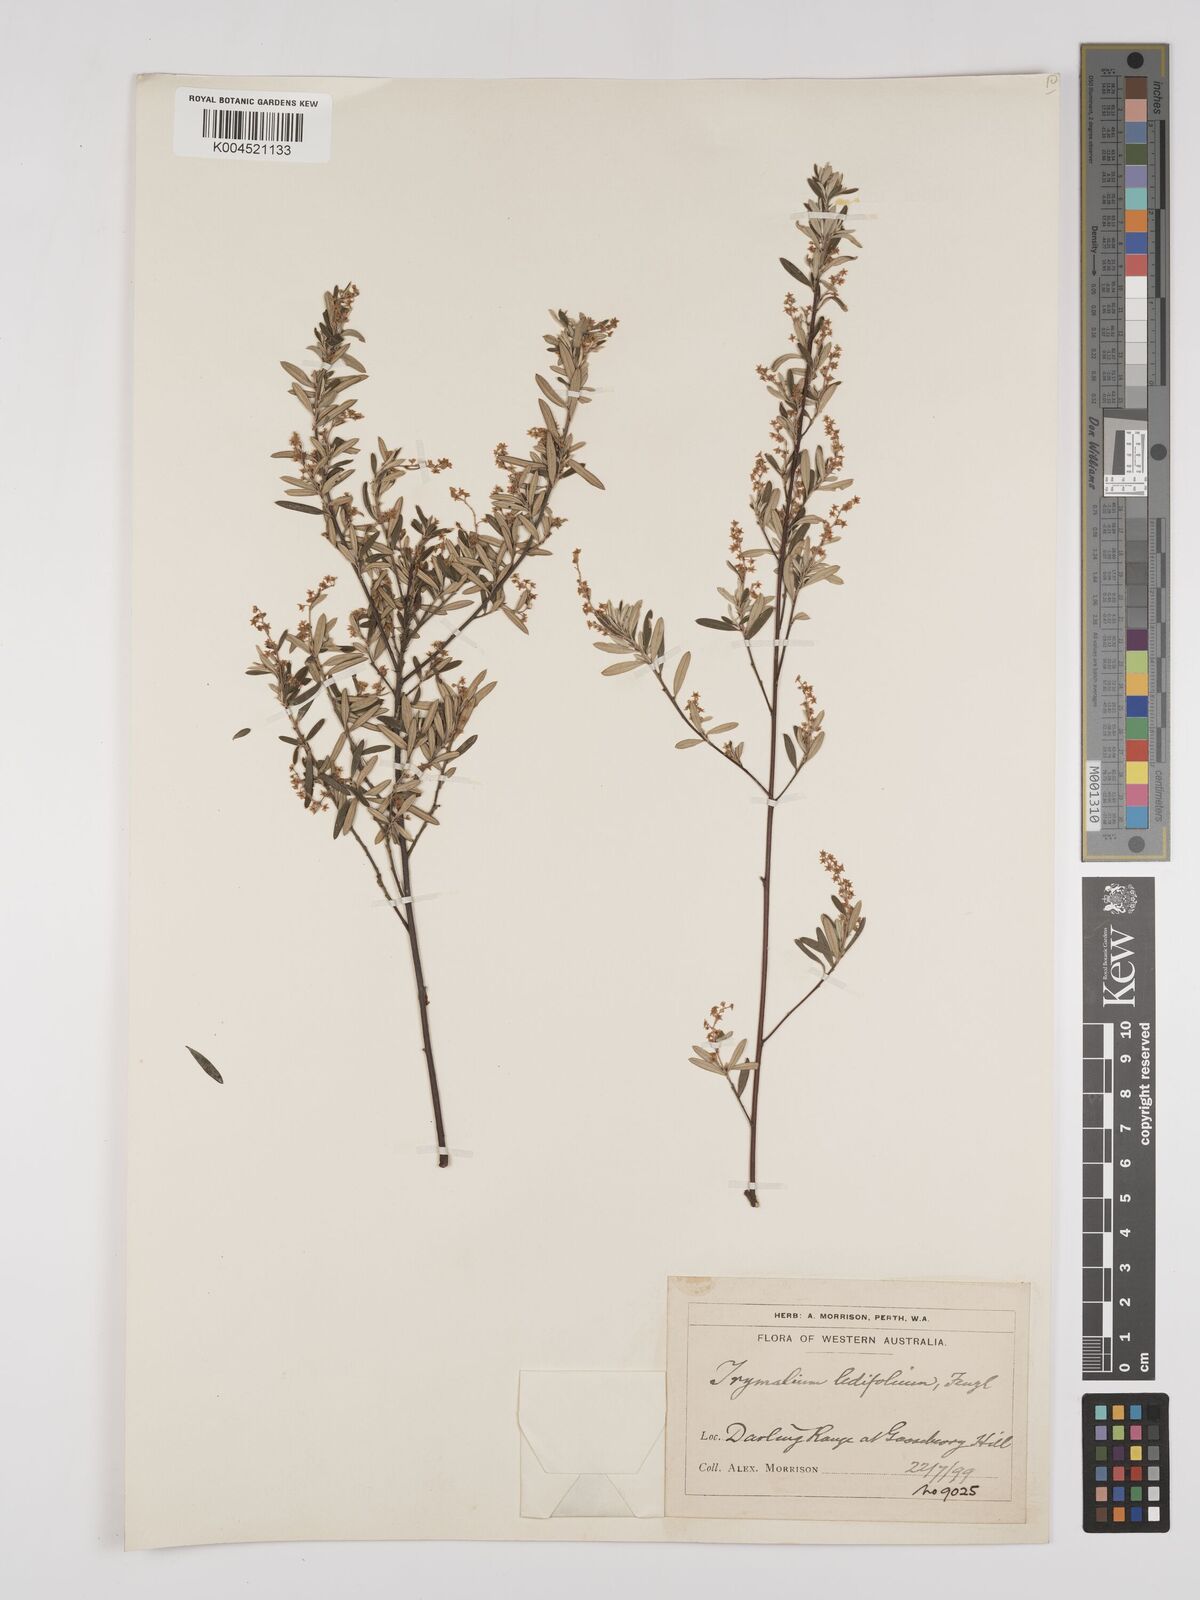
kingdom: Plantae
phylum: Tracheophyta
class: Magnoliopsida
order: Rosales
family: Rhamnaceae
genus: Trymalium
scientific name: Trymalium ledifolium
